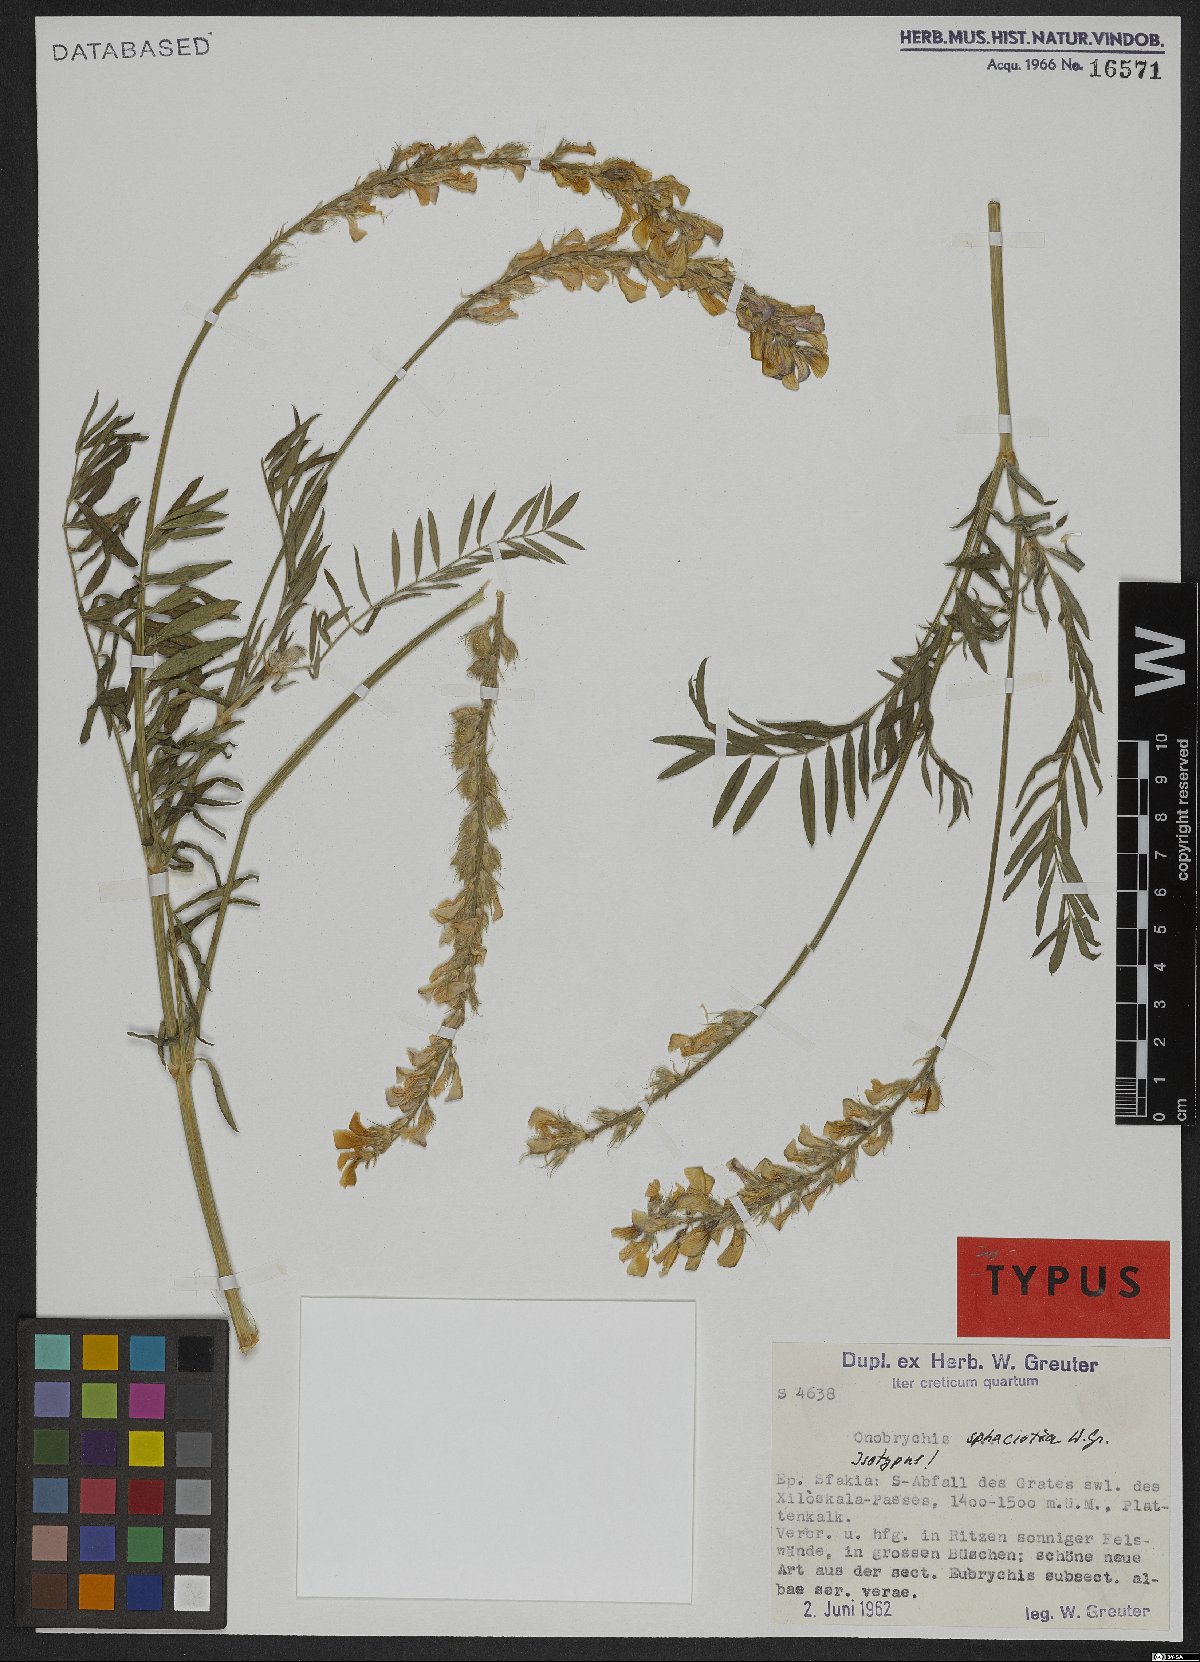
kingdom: Plantae
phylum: Tracheophyta
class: Magnoliopsida
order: Fabales
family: Fabaceae
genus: Onobrychis
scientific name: Onobrychis sphaciotica
